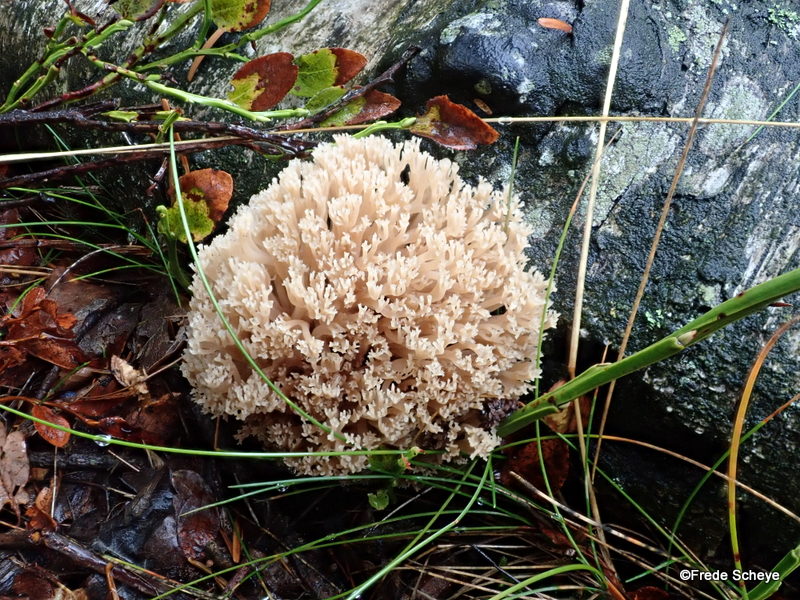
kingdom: Fungi
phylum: Basidiomycota
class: Agaricomycetes
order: Russulales
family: Auriscalpiaceae
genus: Artomyces
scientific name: Artomyces pyxidatus
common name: kandelabersvamp
